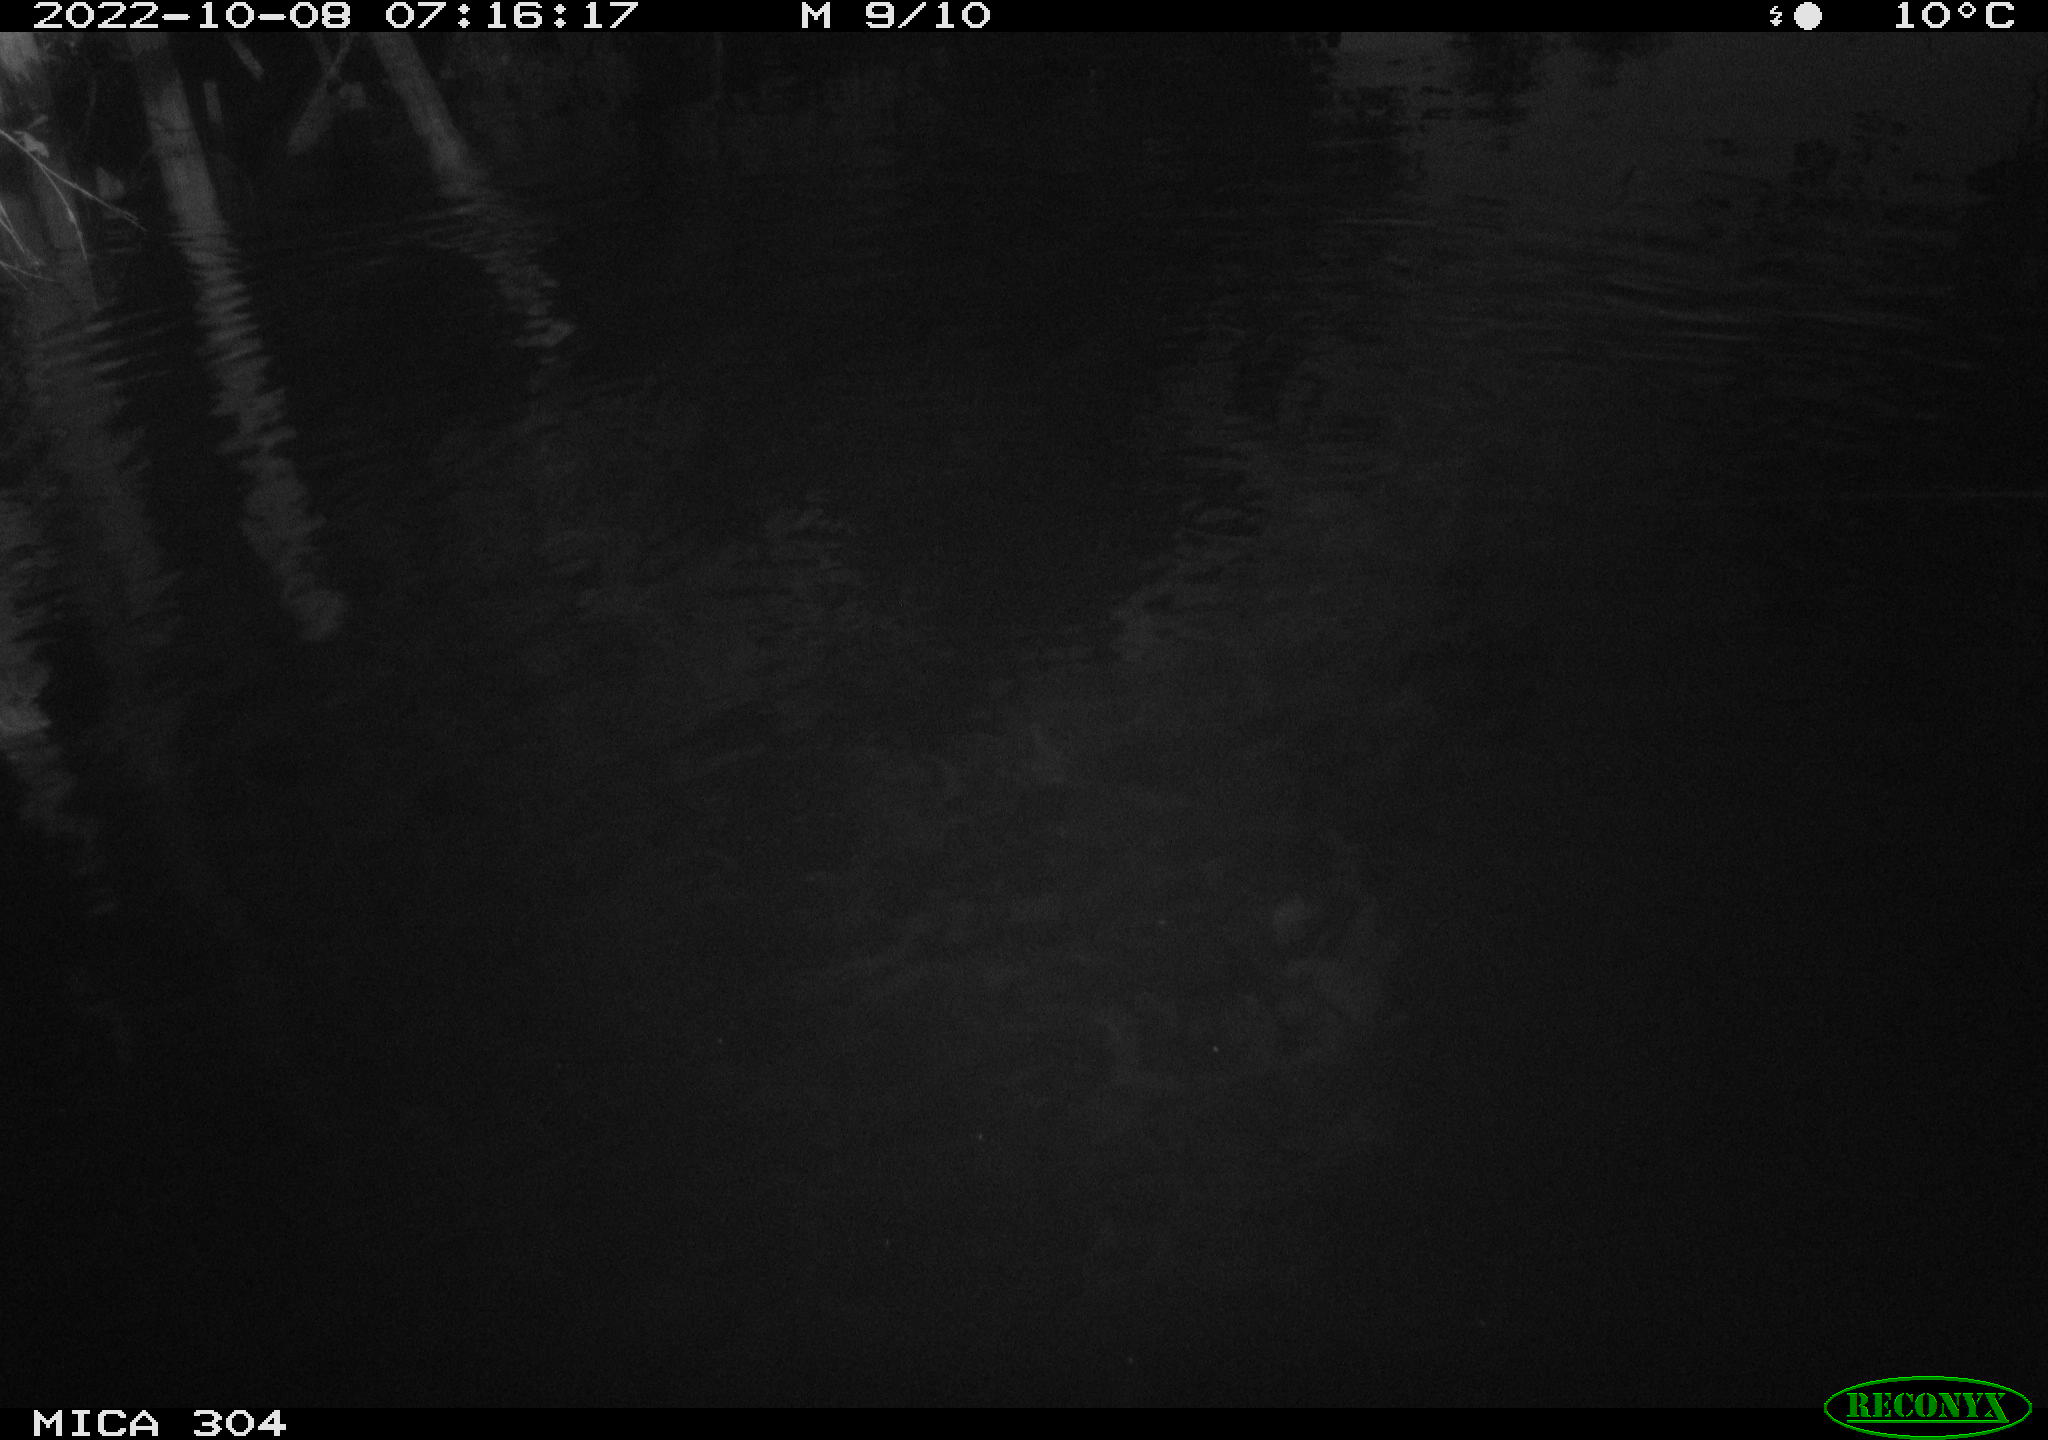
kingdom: Animalia
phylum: Chordata
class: Mammalia
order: Rodentia
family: Muridae
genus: Rattus
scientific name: Rattus norvegicus
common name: Brown rat
